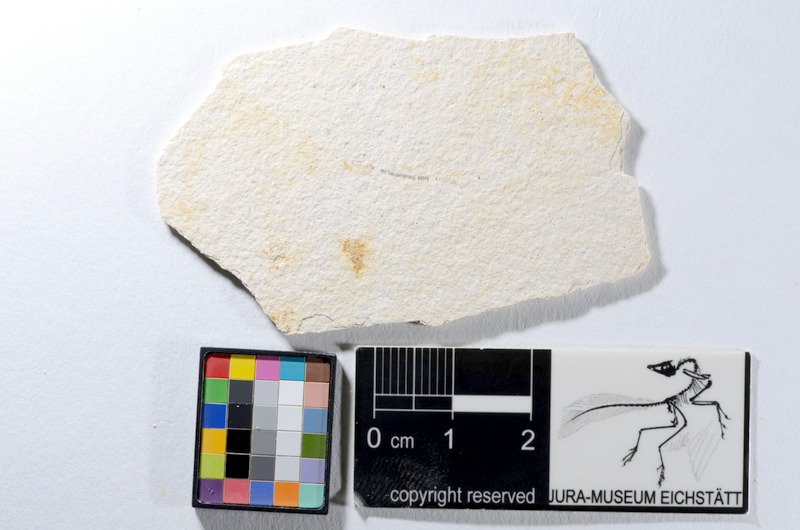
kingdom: Animalia
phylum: Chordata
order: Salmoniformes
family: Orthogonikleithridae
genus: Orthogonikleithrus
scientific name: Orthogonikleithrus hoelli
